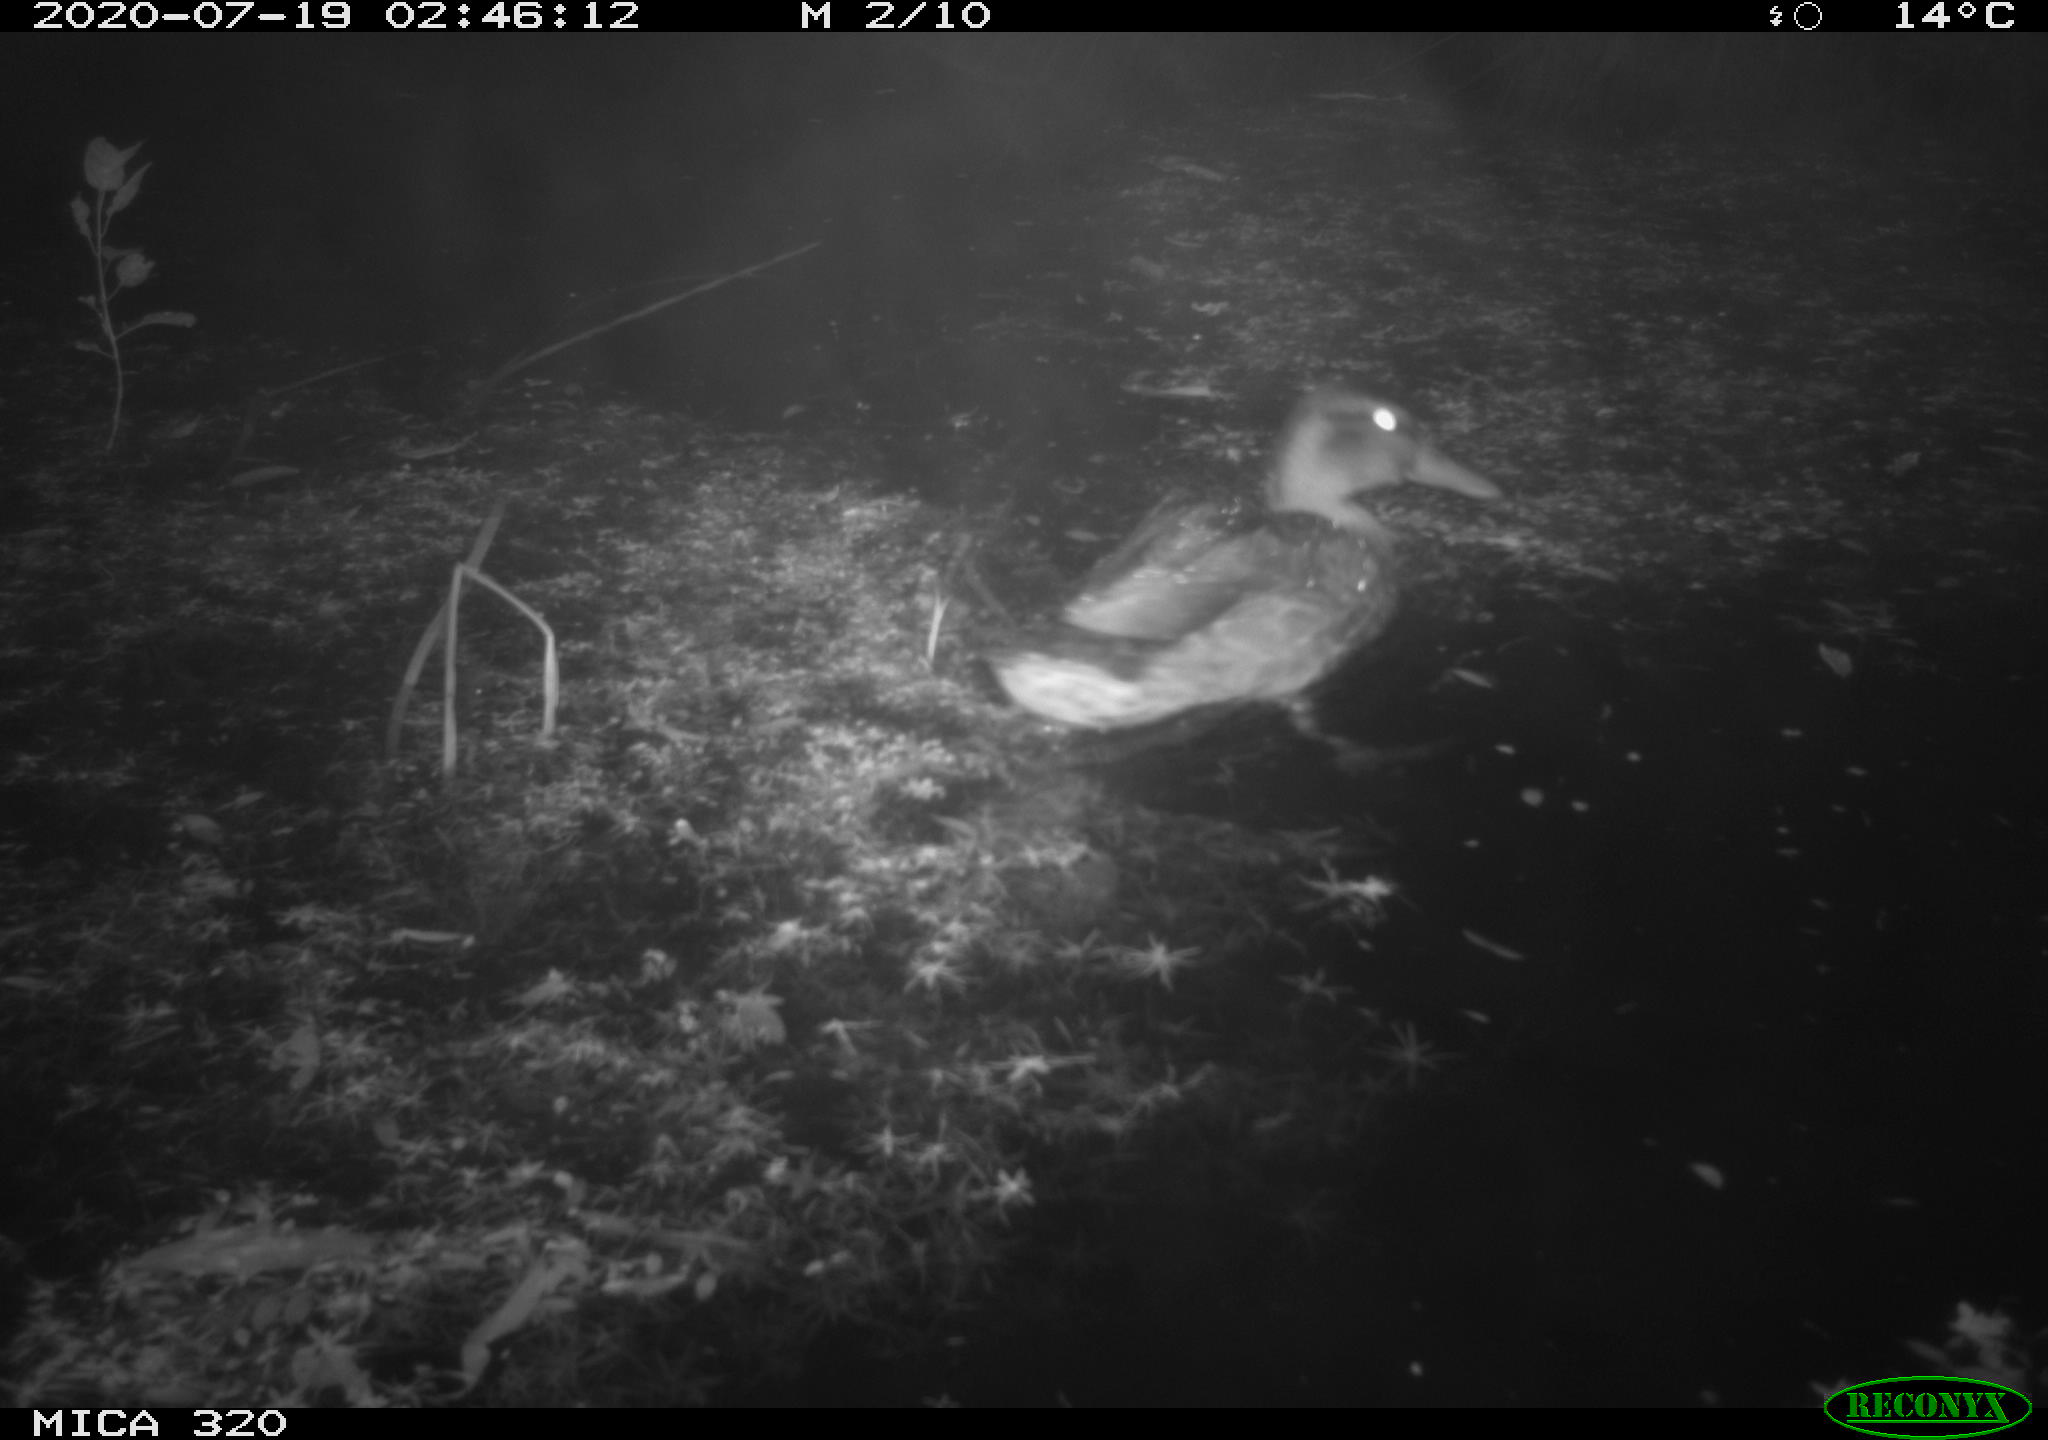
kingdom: Animalia
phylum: Chordata
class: Aves
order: Anseriformes
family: Anatidae
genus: Anas
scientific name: Anas platyrhynchos
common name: Mallard
